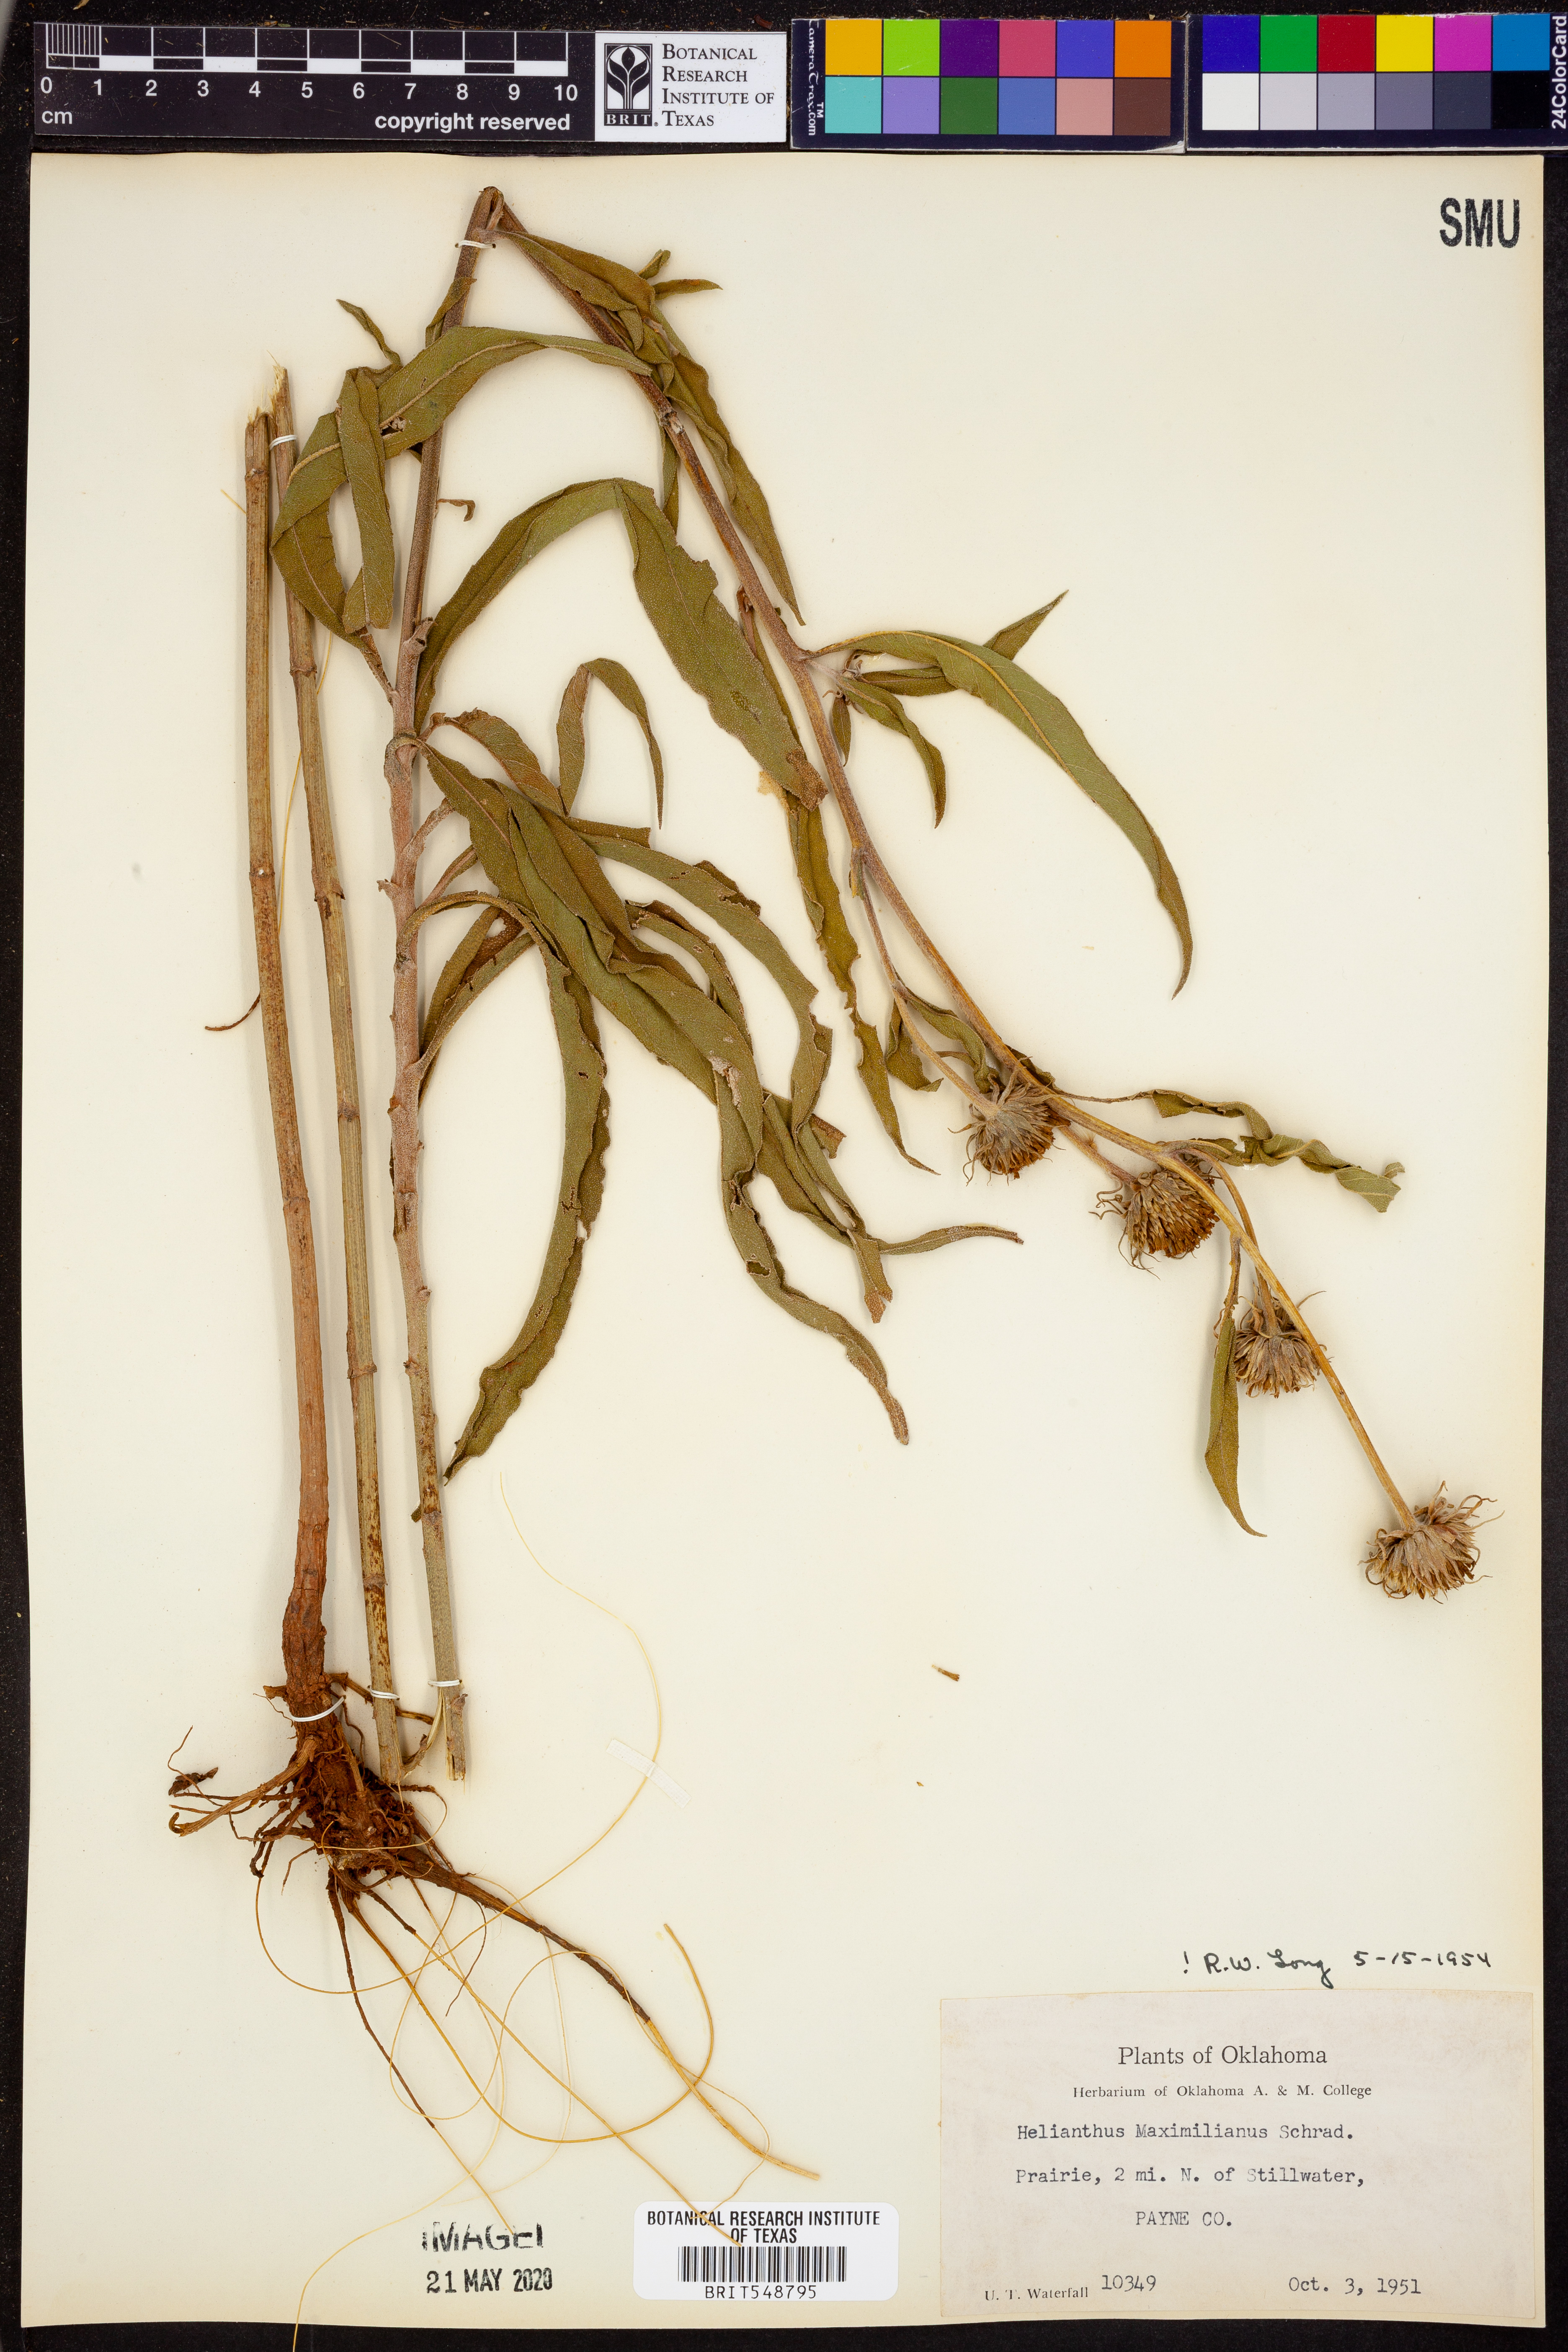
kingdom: Plantae
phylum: Tracheophyta
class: Magnoliopsida
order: Asterales
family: Asteraceae
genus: Helianthus
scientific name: Helianthus maximiliani
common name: Maximilian's sunflower
